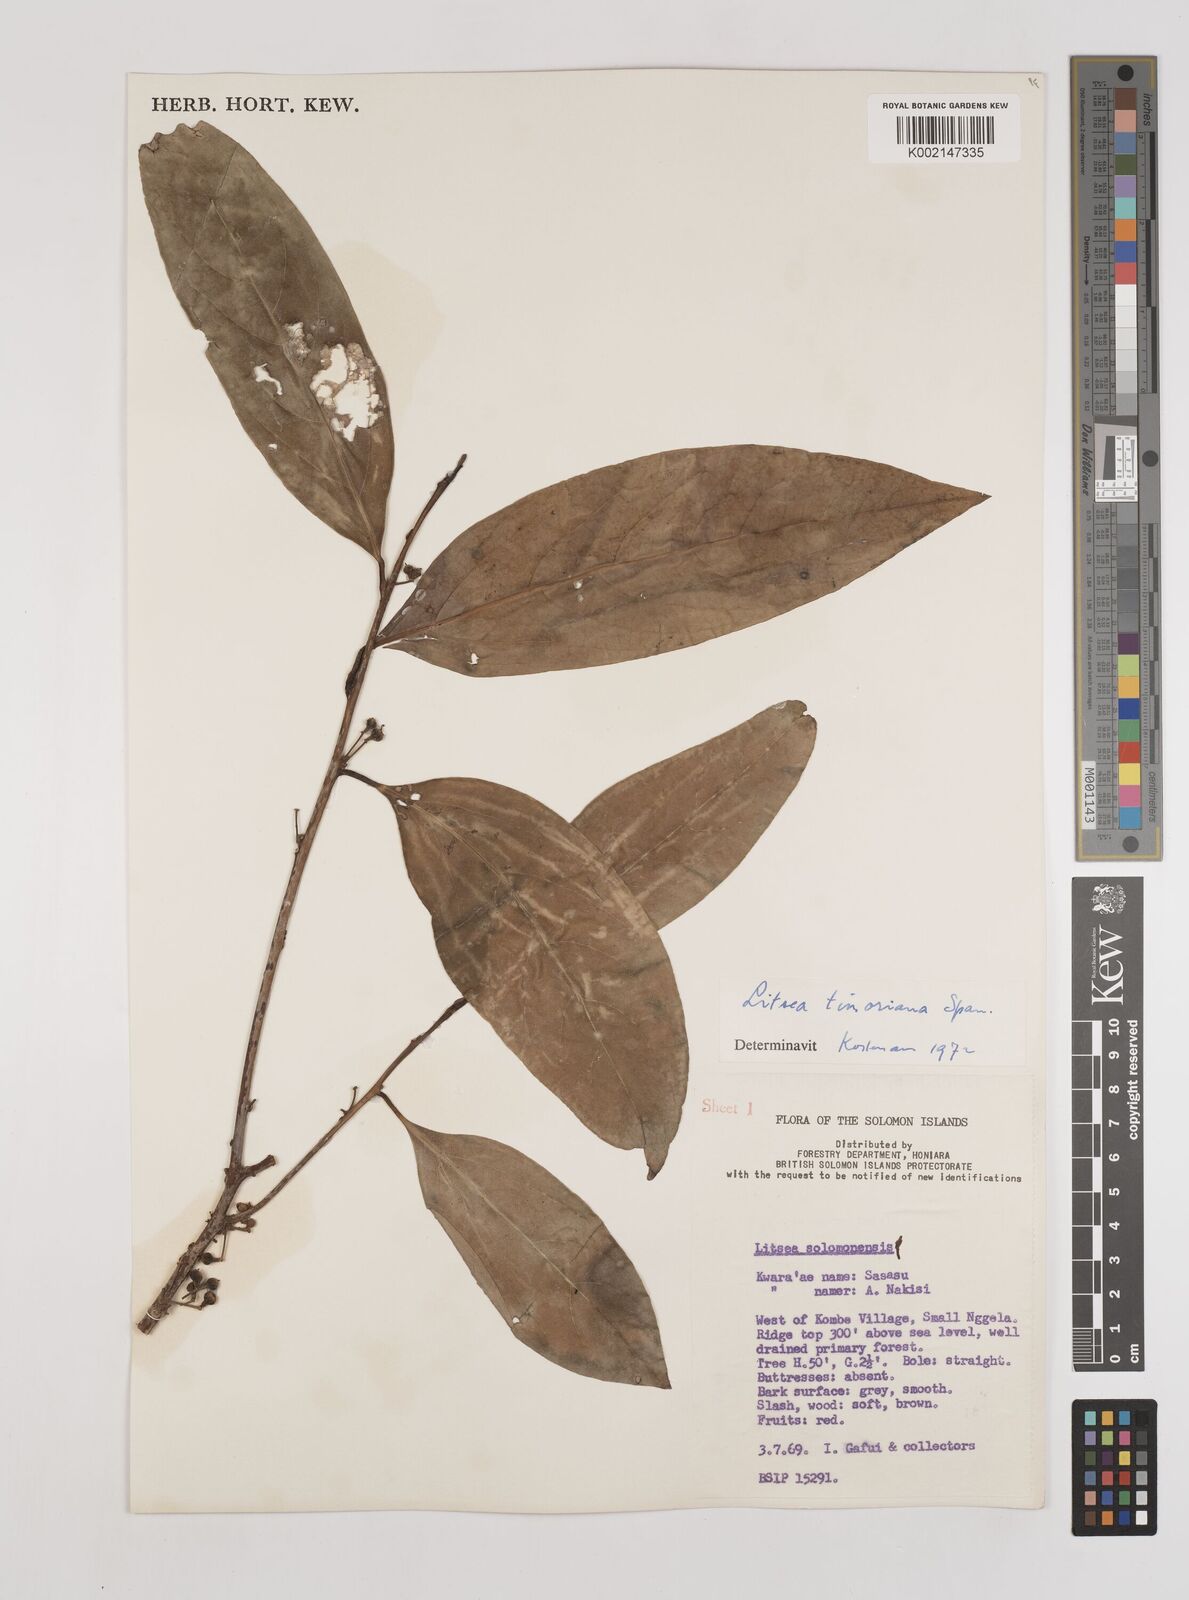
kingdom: Plantae
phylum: Tracheophyta
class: Magnoliopsida
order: Laurales
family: Lauraceae
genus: Litsea
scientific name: Litsea timoriana
